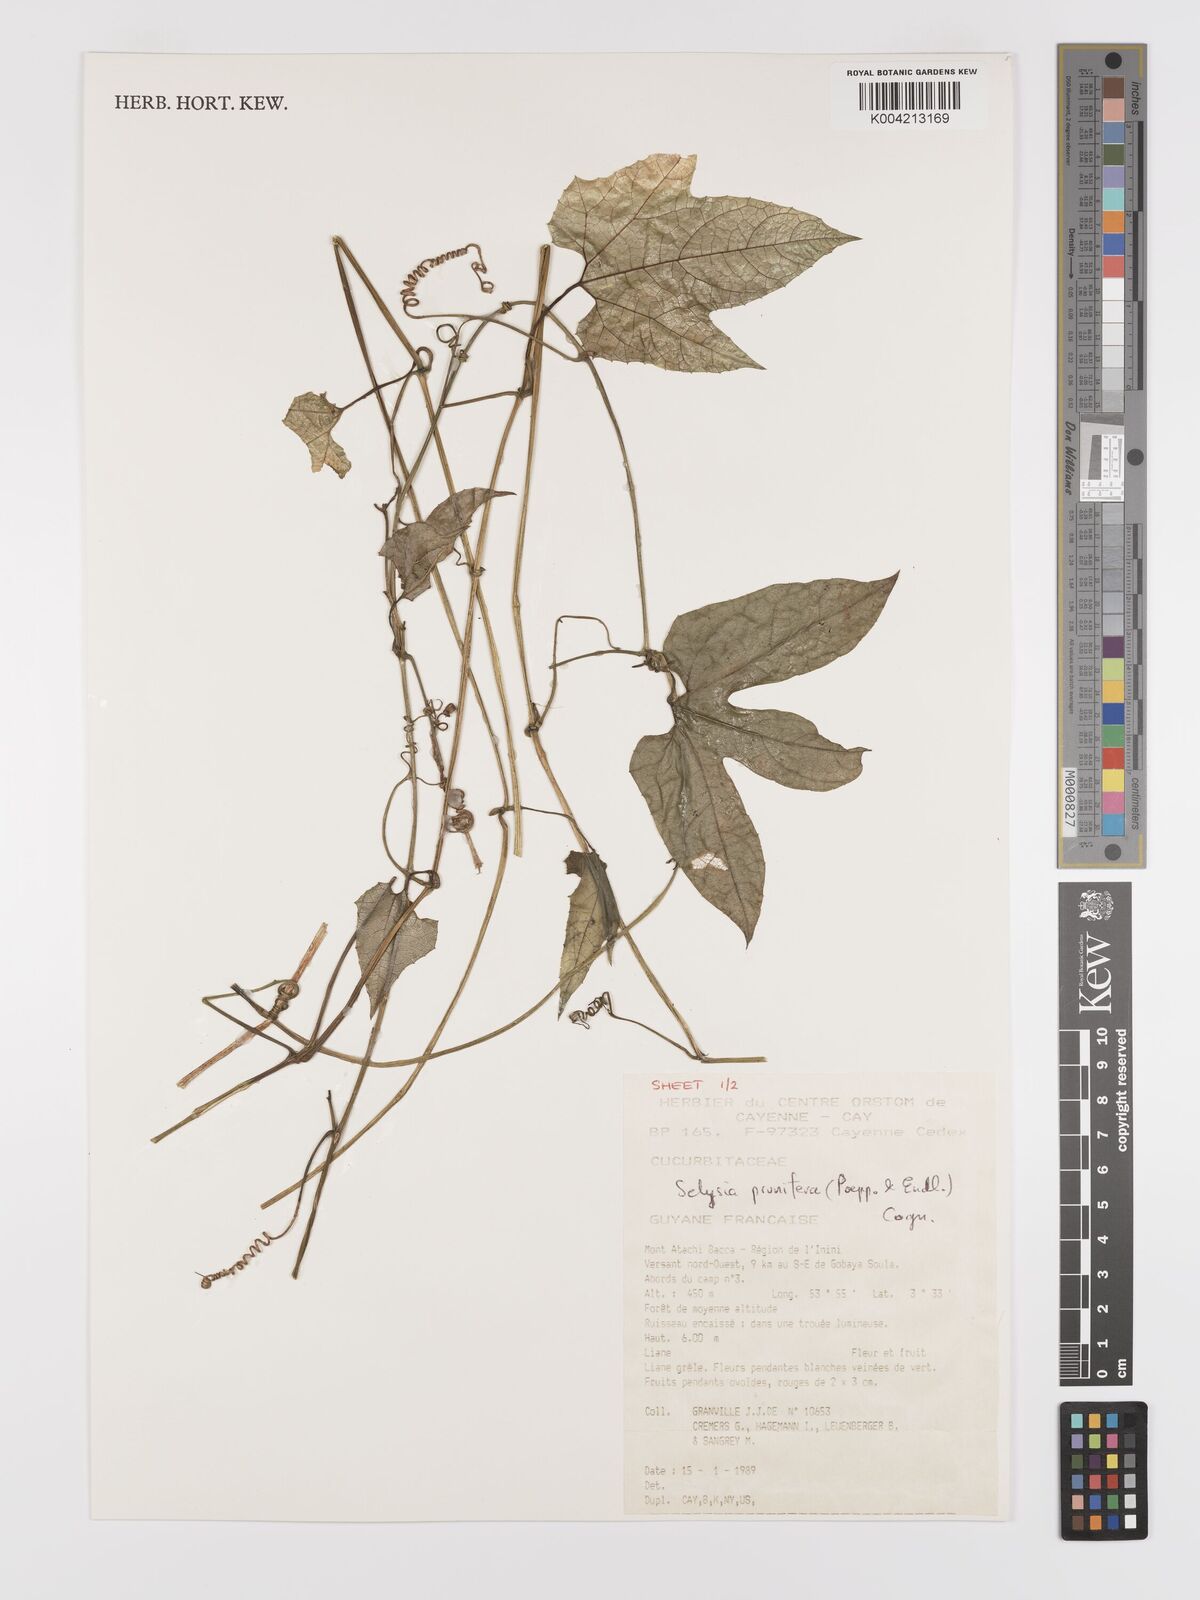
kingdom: Plantae
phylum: Tracheophyta
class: Magnoliopsida
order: Cucurbitales
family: Cucurbitaceae
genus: Cayaponia
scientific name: Cayaponia prunifera
